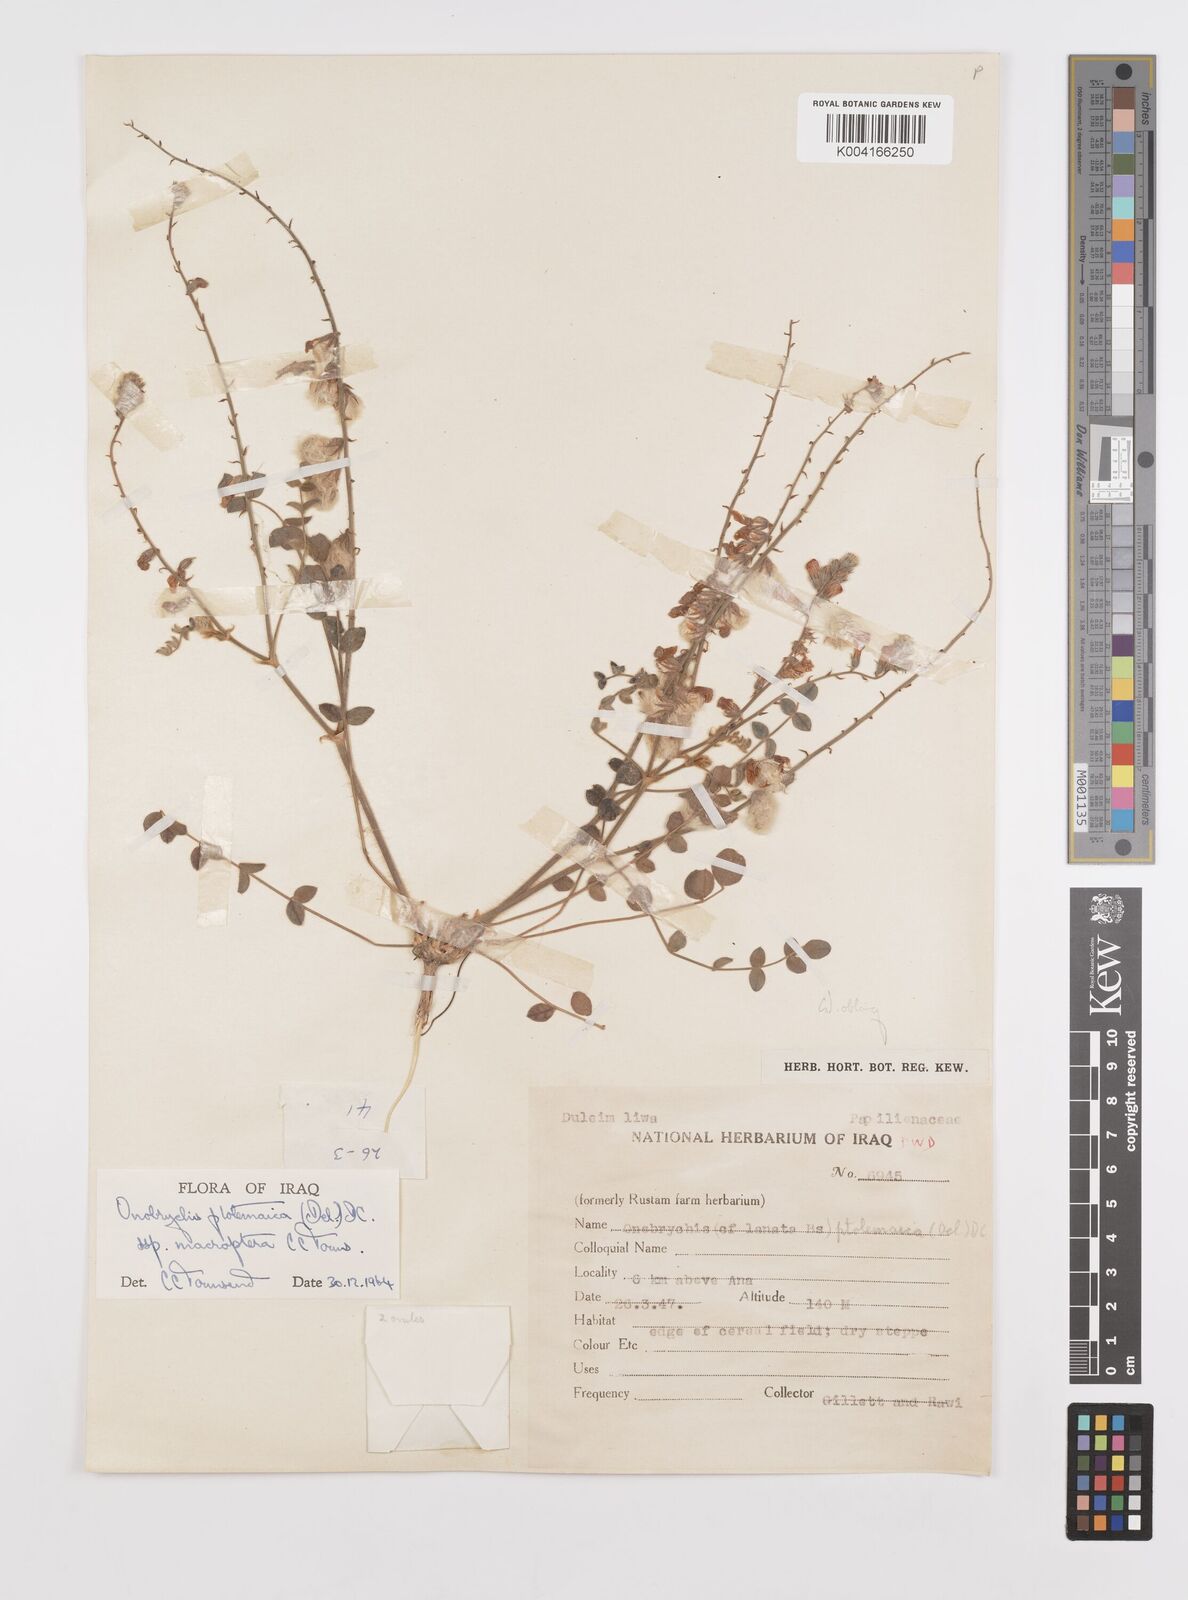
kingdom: Plantae
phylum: Tracheophyta
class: Magnoliopsida
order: Fabales
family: Fabaceae
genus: Onobrychis
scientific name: Onobrychis ptolemaica
